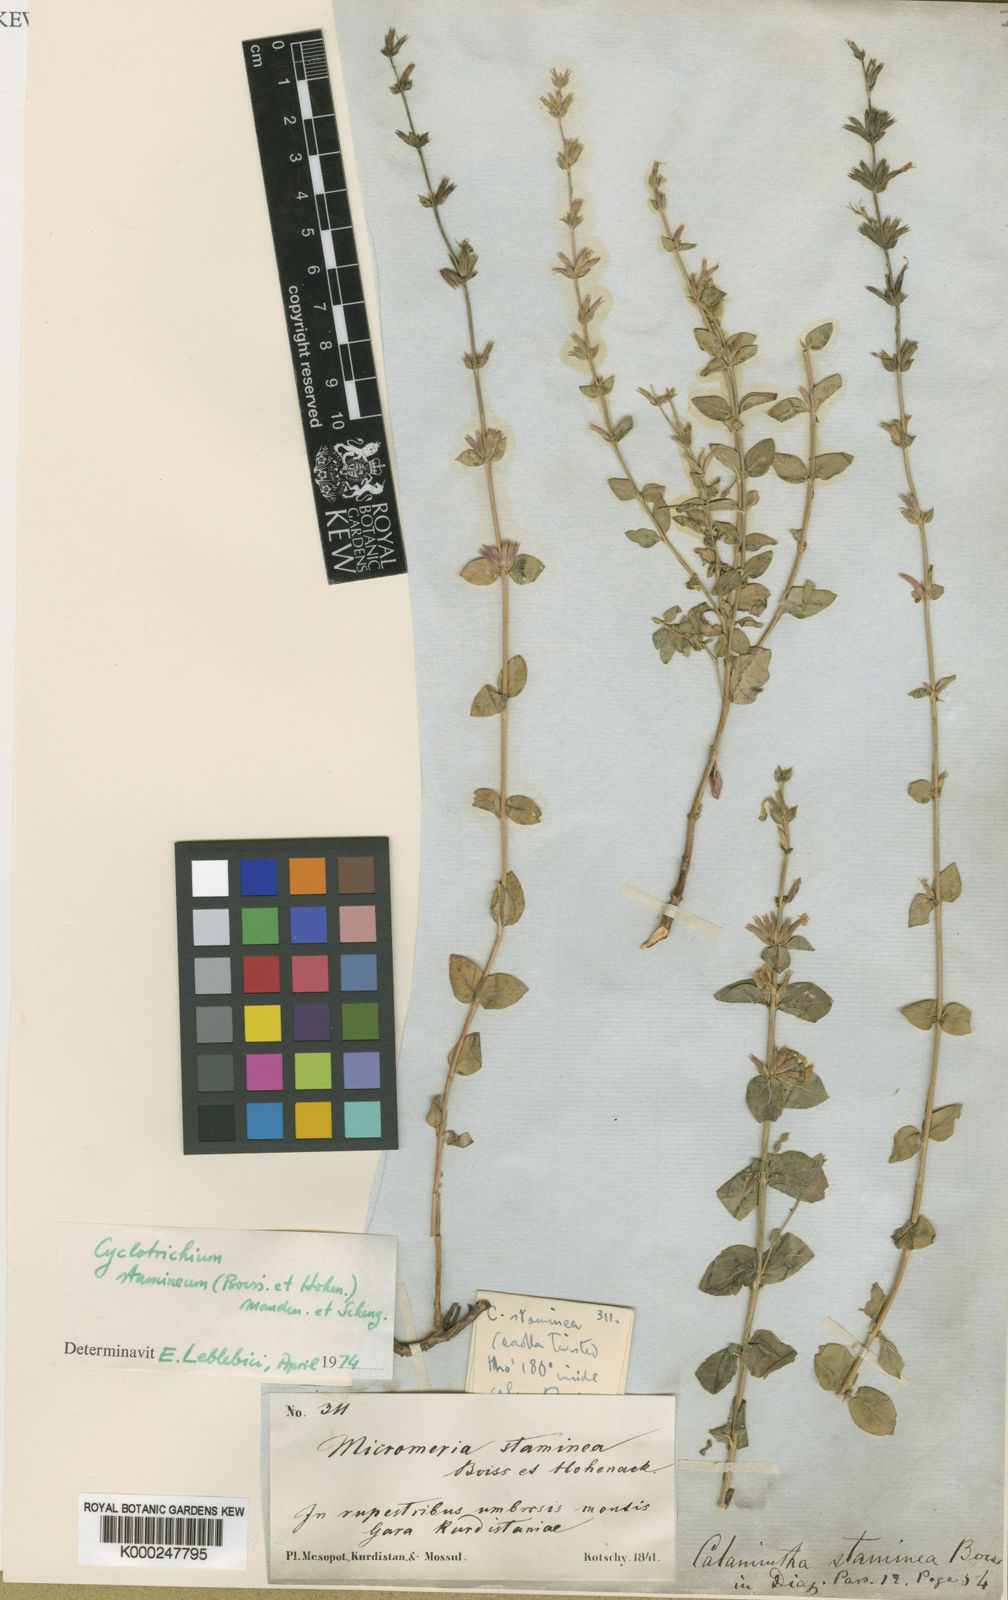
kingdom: Plantae
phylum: Tracheophyta
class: Magnoliopsida
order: Lamiales
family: Lamiaceae
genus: Cyclotrichium
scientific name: Cyclotrichium stamineum
